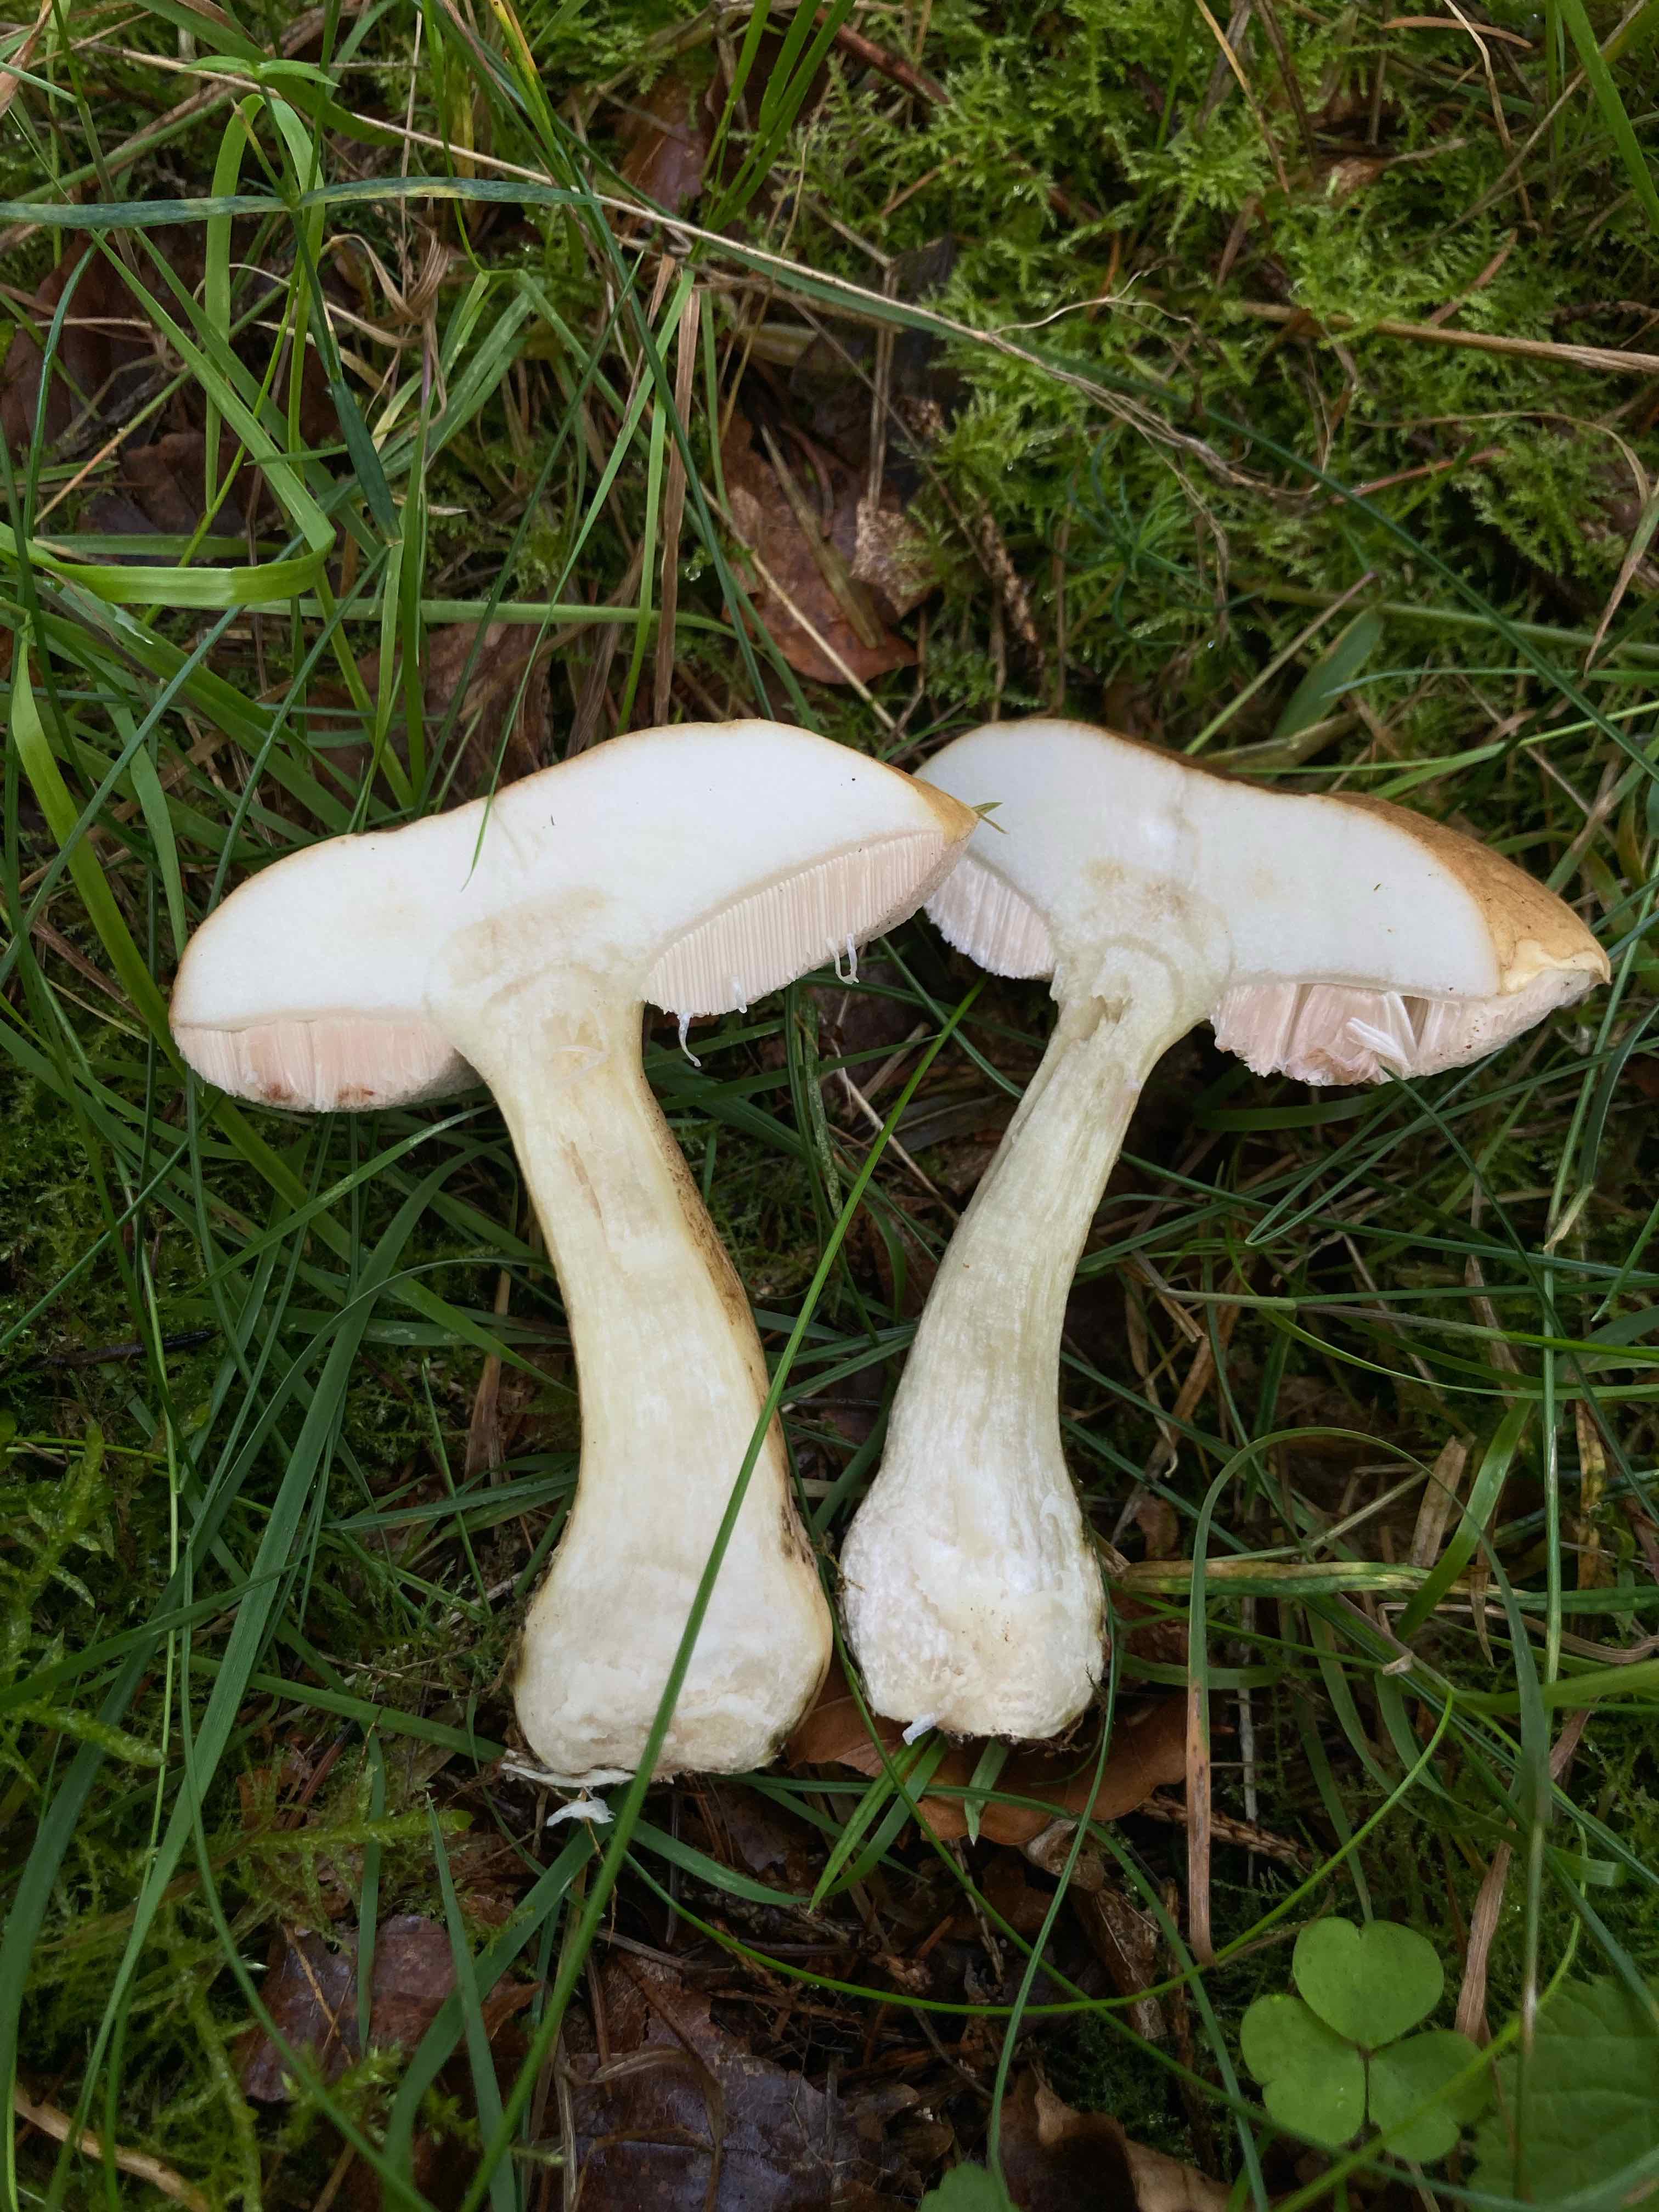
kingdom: Fungi
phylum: Basidiomycota
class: Agaricomycetes
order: Boletales
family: Boletaceae
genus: Tylopilus
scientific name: Tylopilus felleus
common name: galderørhat
